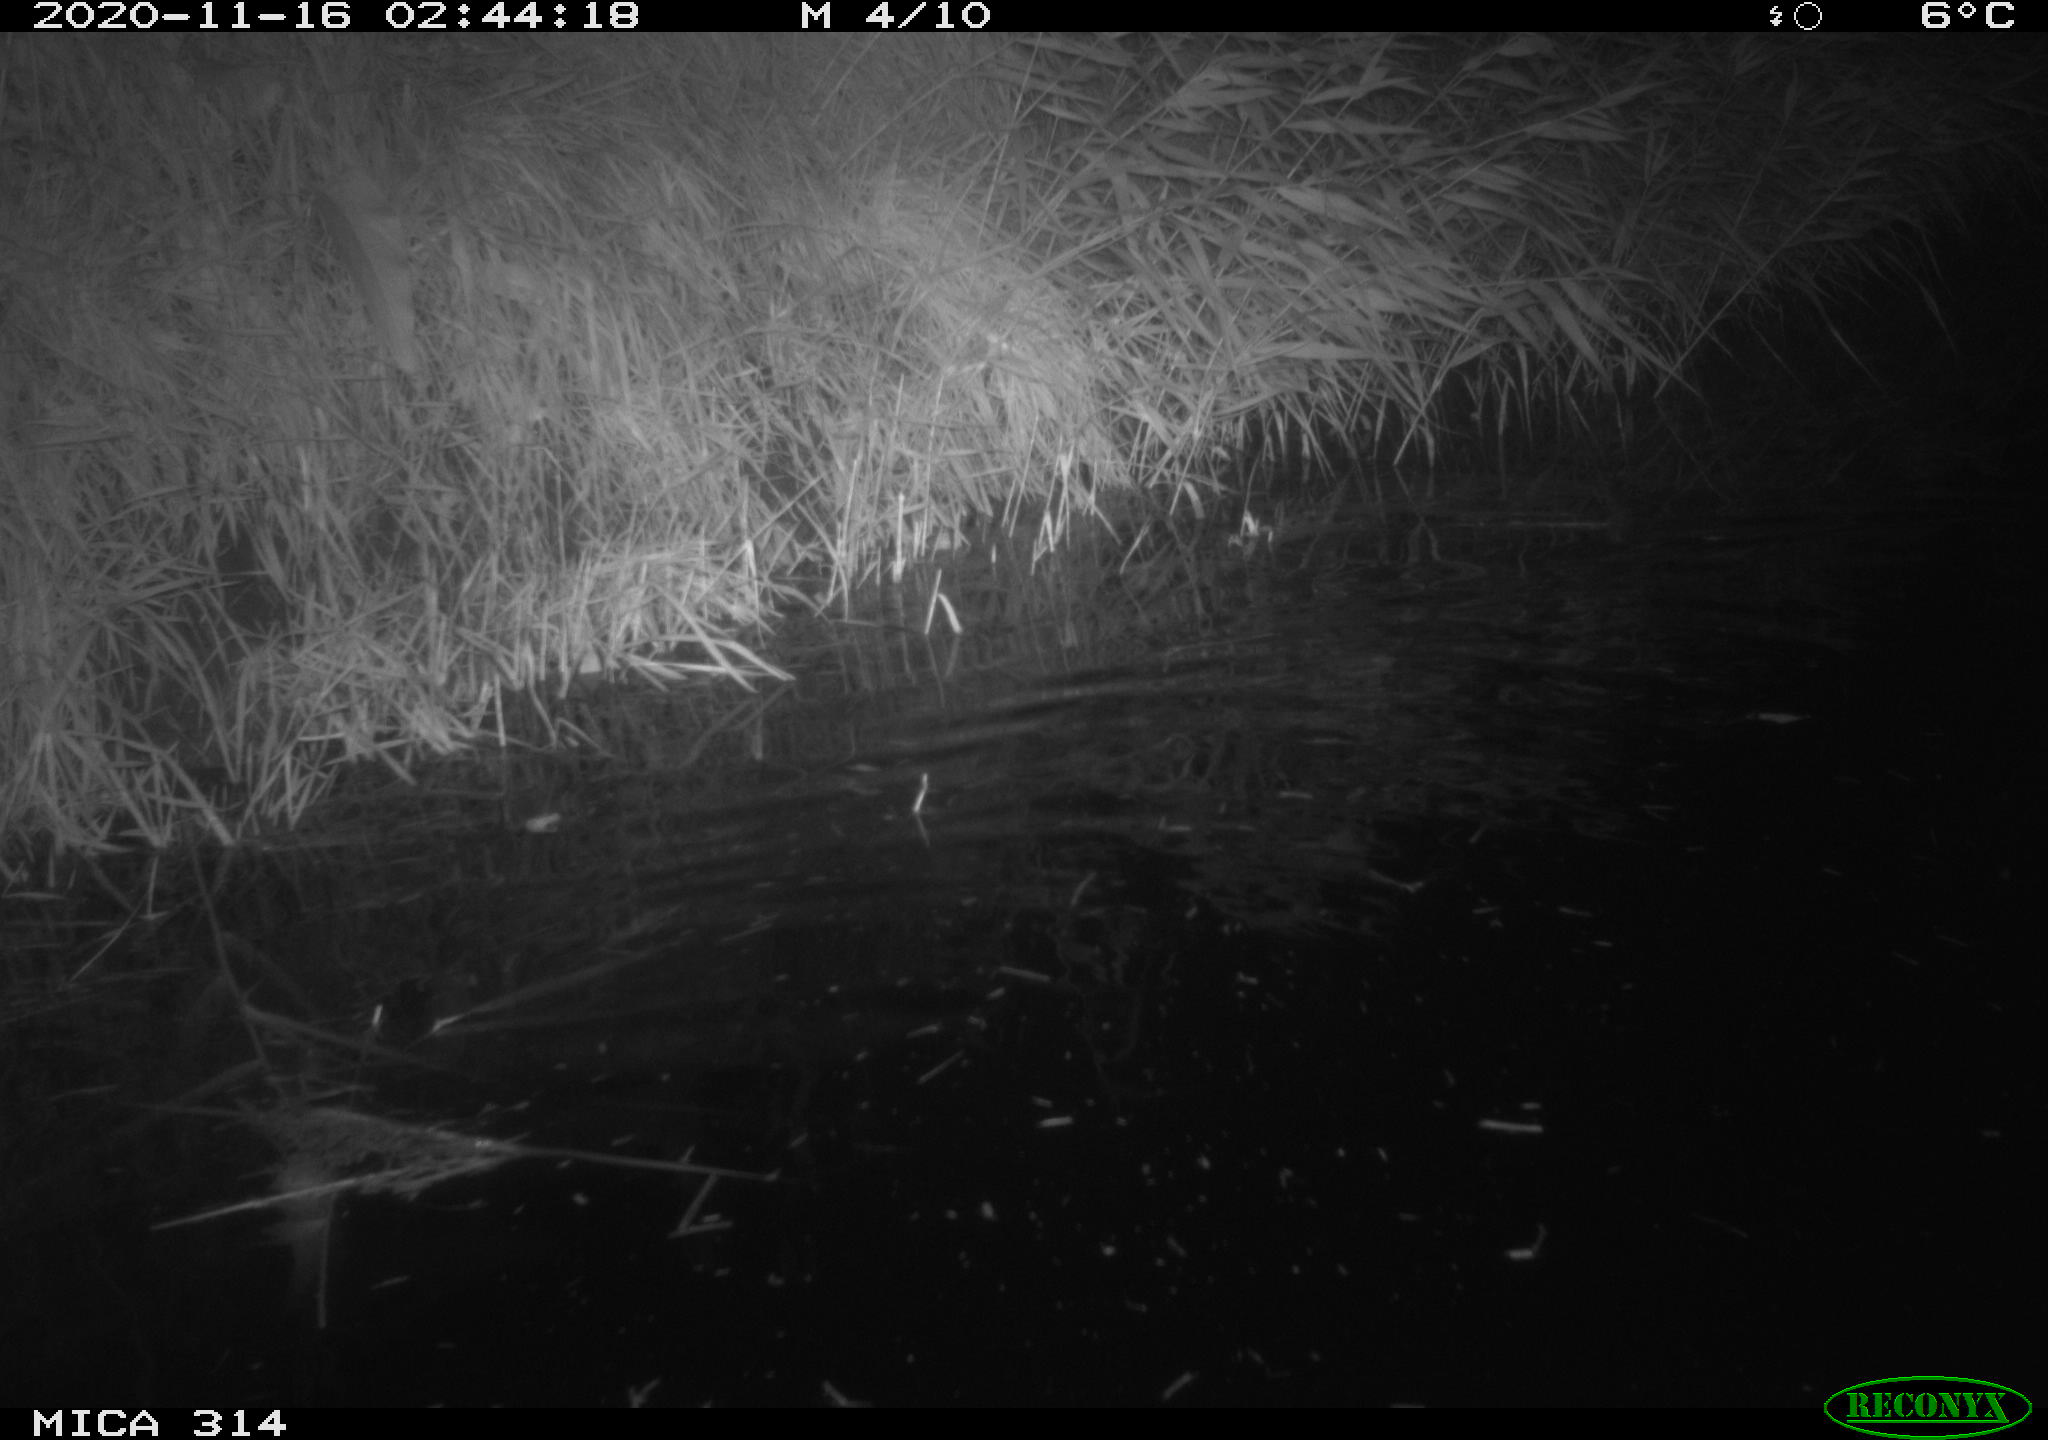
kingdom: Animalia
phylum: Chordata
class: Mammalia
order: Rodentia
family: Muridae
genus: Rattus
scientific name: Rattus norvegicus
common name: Brown rat
